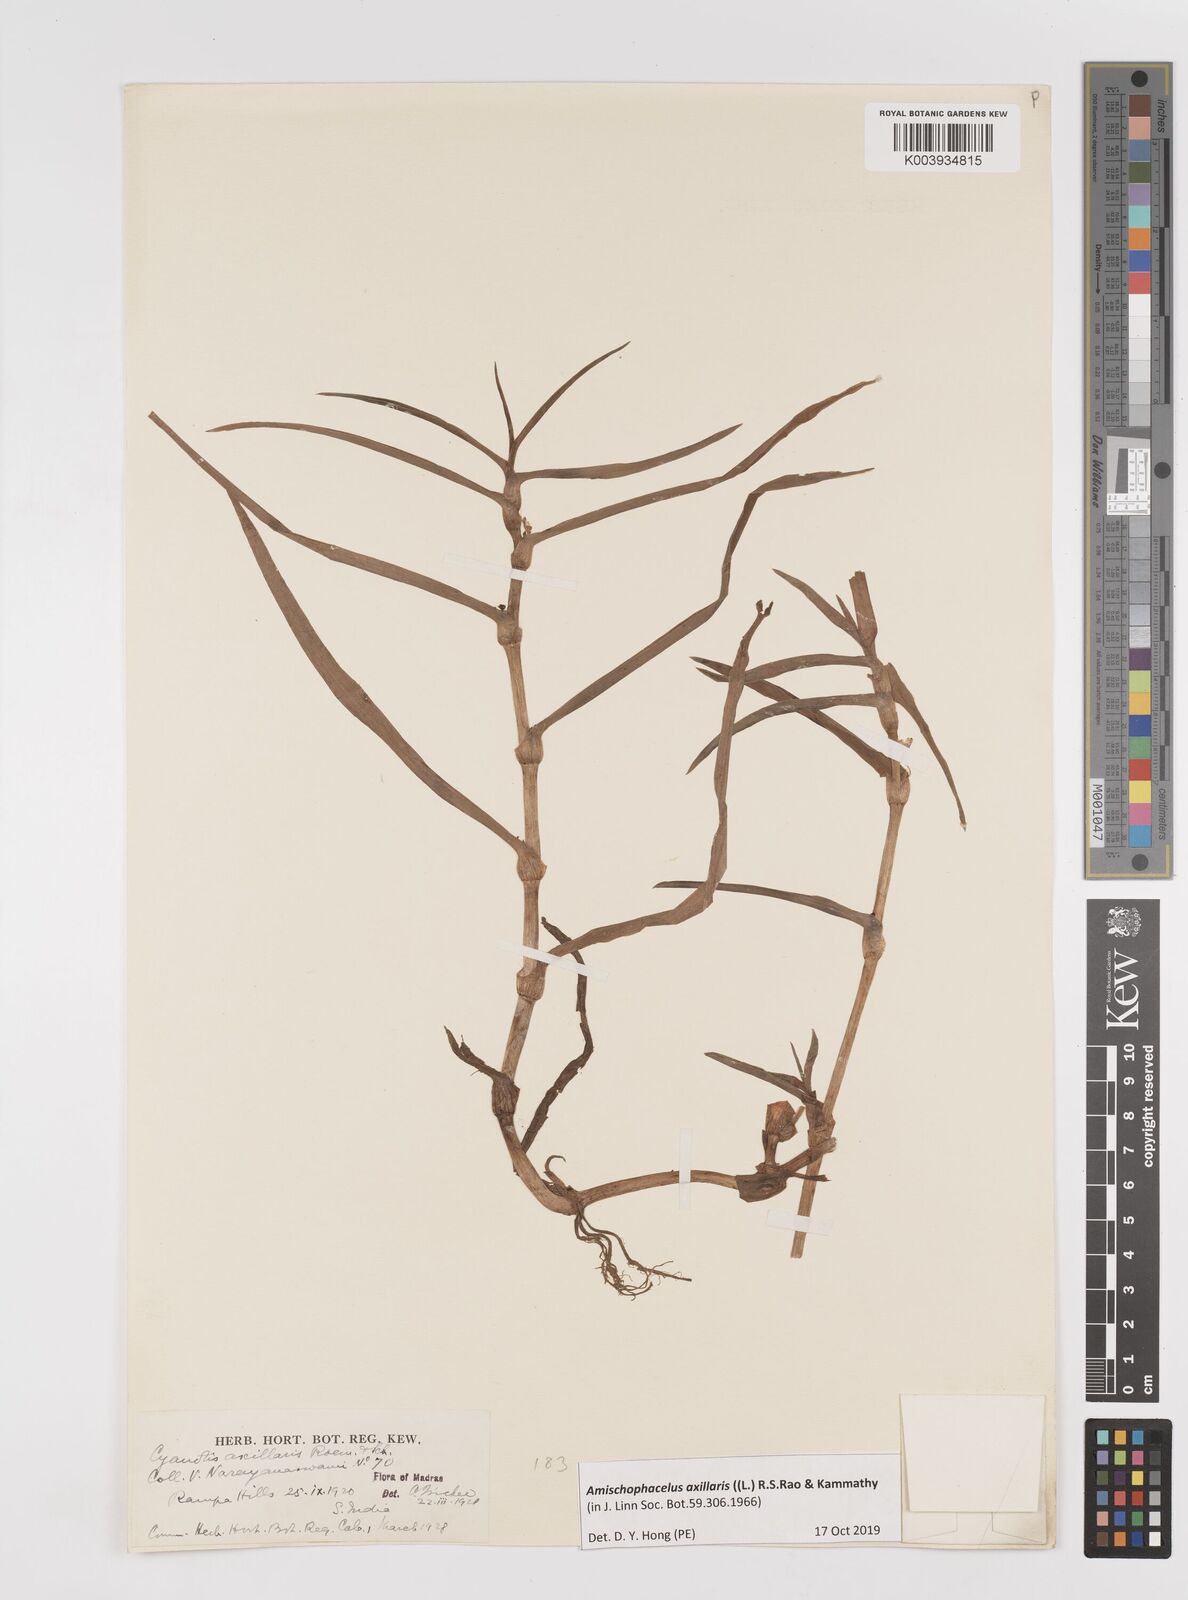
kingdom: Plantae
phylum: Tracheophyta
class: Liliopsida
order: Commelinales
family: Commelinaceae
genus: Cyanotis
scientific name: Cyanotis axillaris
